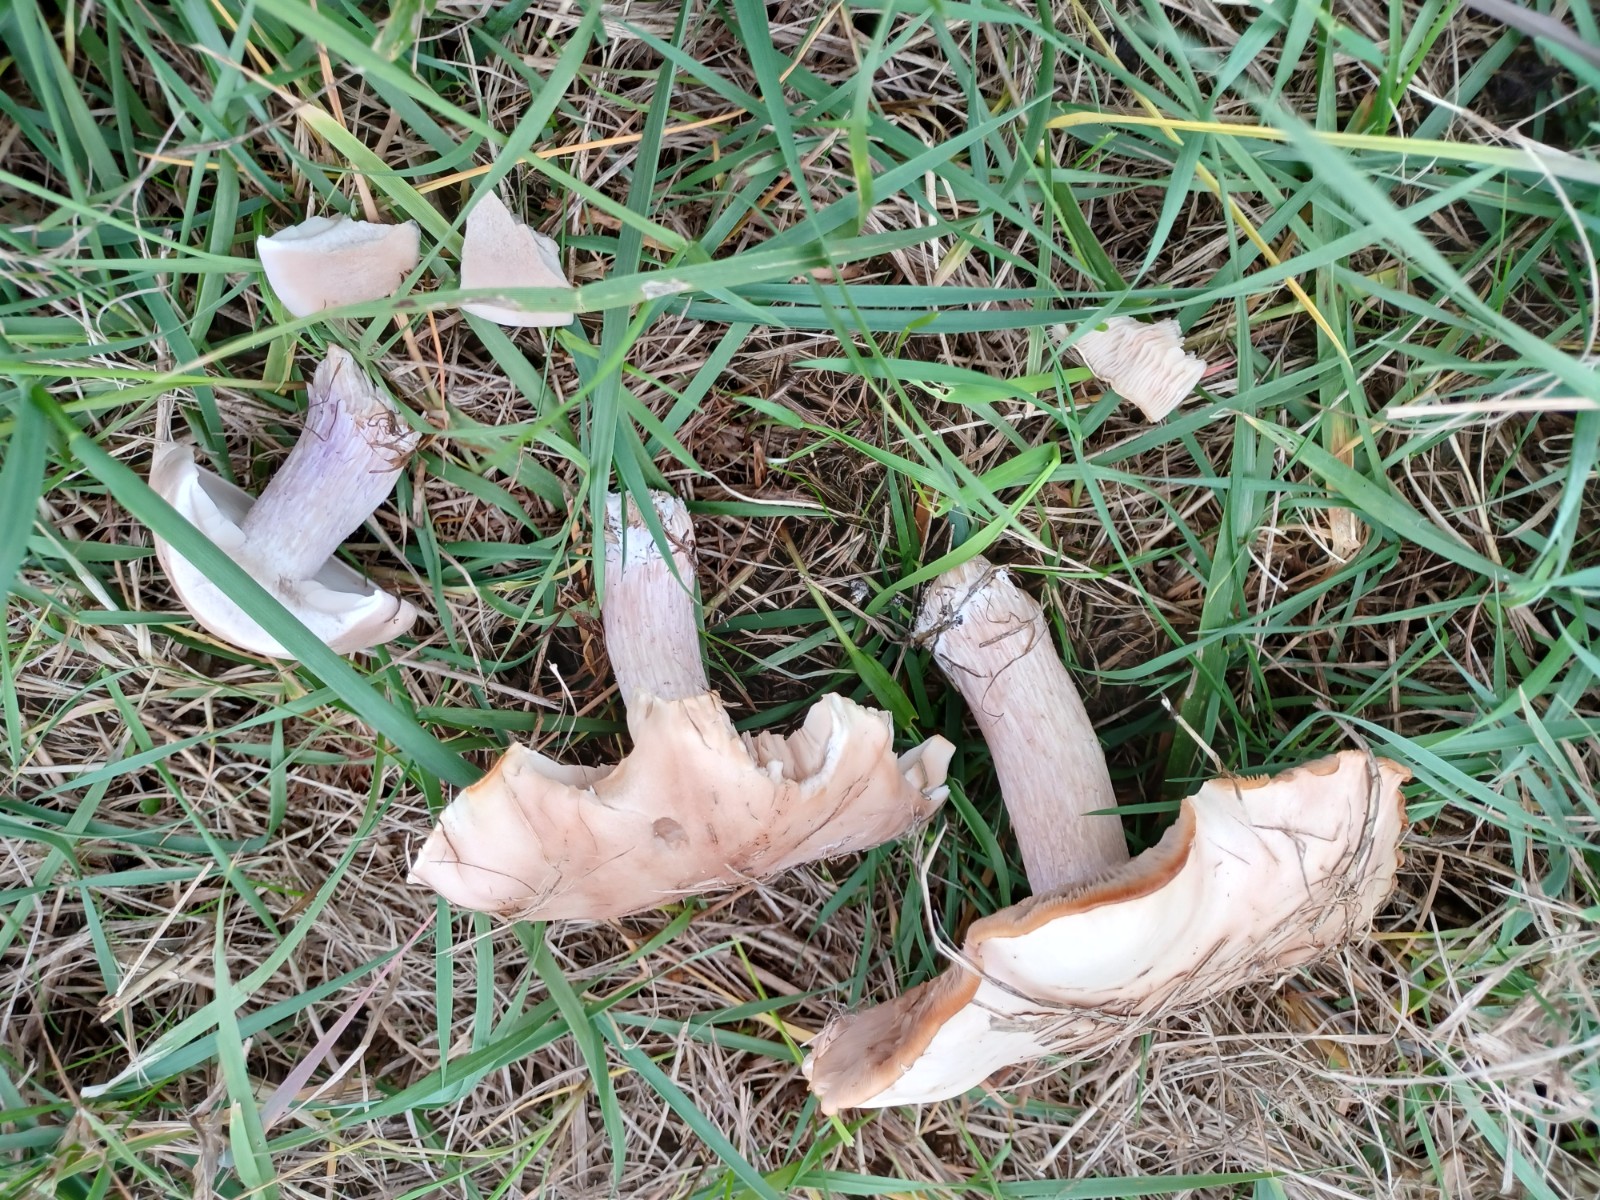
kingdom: Fungi
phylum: Basidiomycota
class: Agaricomycetes
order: Agaricales
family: Tricholomataceae
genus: Lepista
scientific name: Lepista personata
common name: bleg hekseringshat
